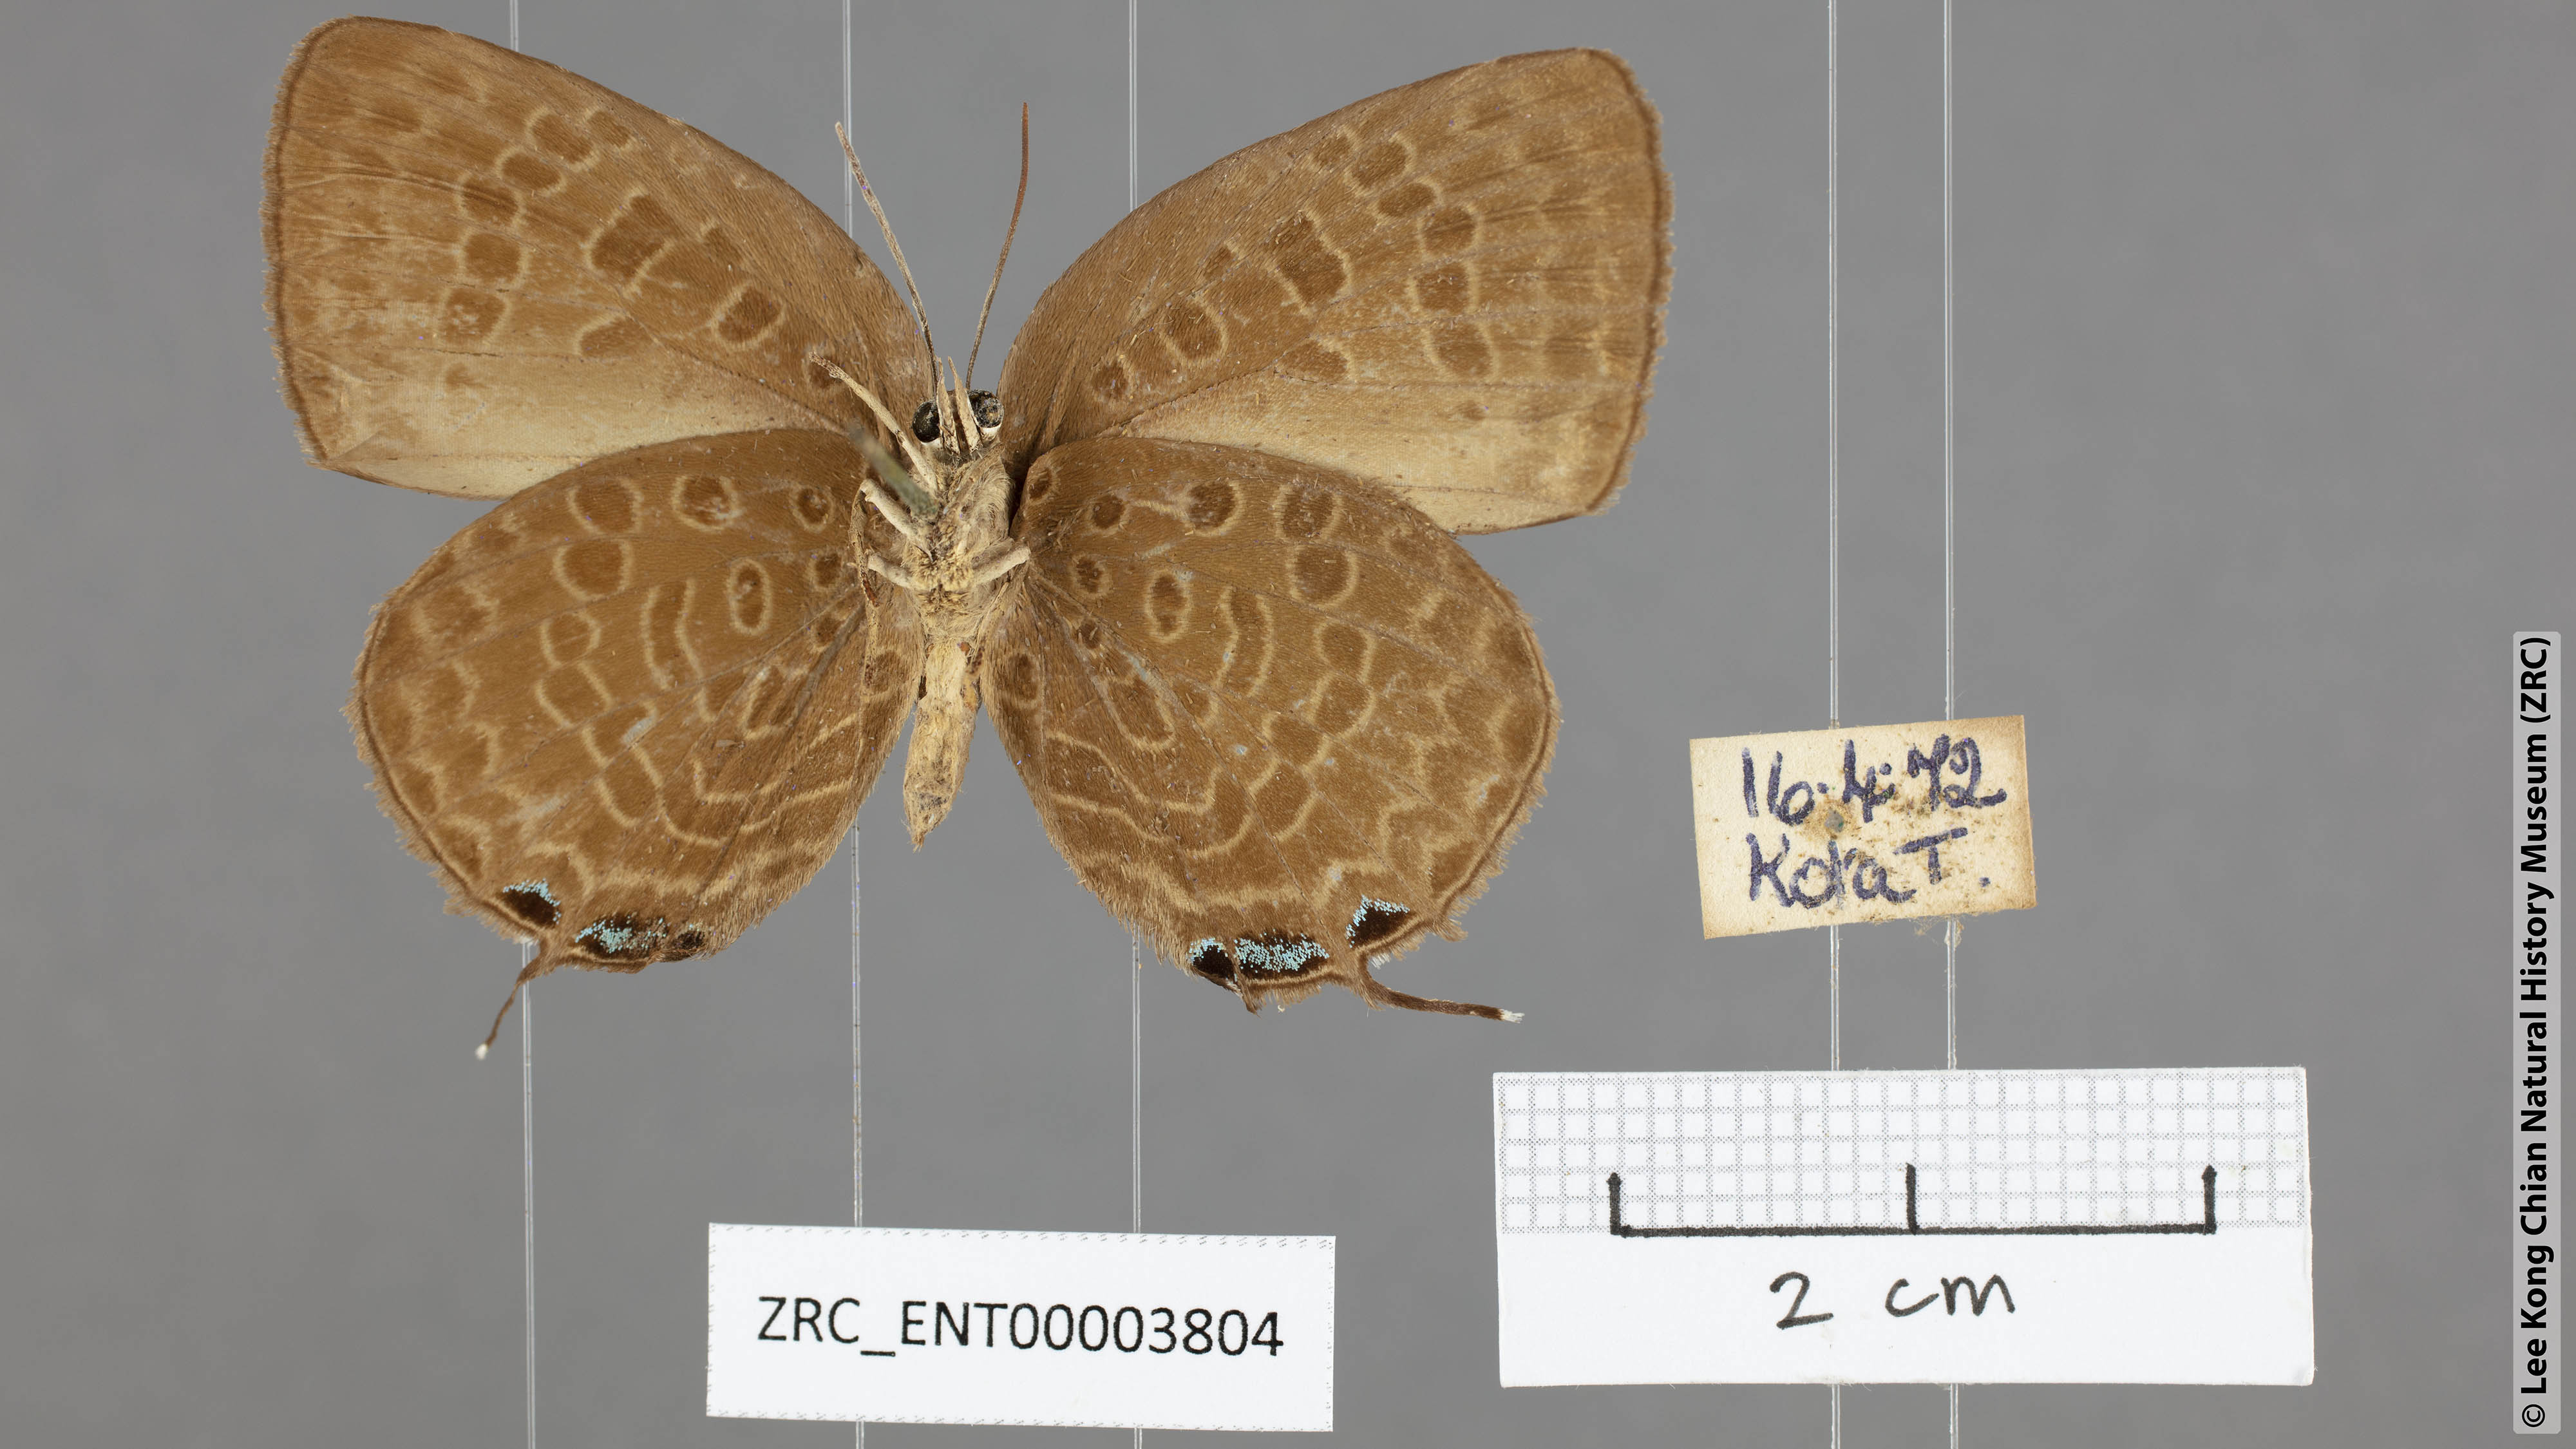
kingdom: Animalia
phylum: Arthropoda
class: Insecta
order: Lepidoptera
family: Lycaenidae
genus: Arhopala
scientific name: Arhopala aedias
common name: Large metallic oakblue
